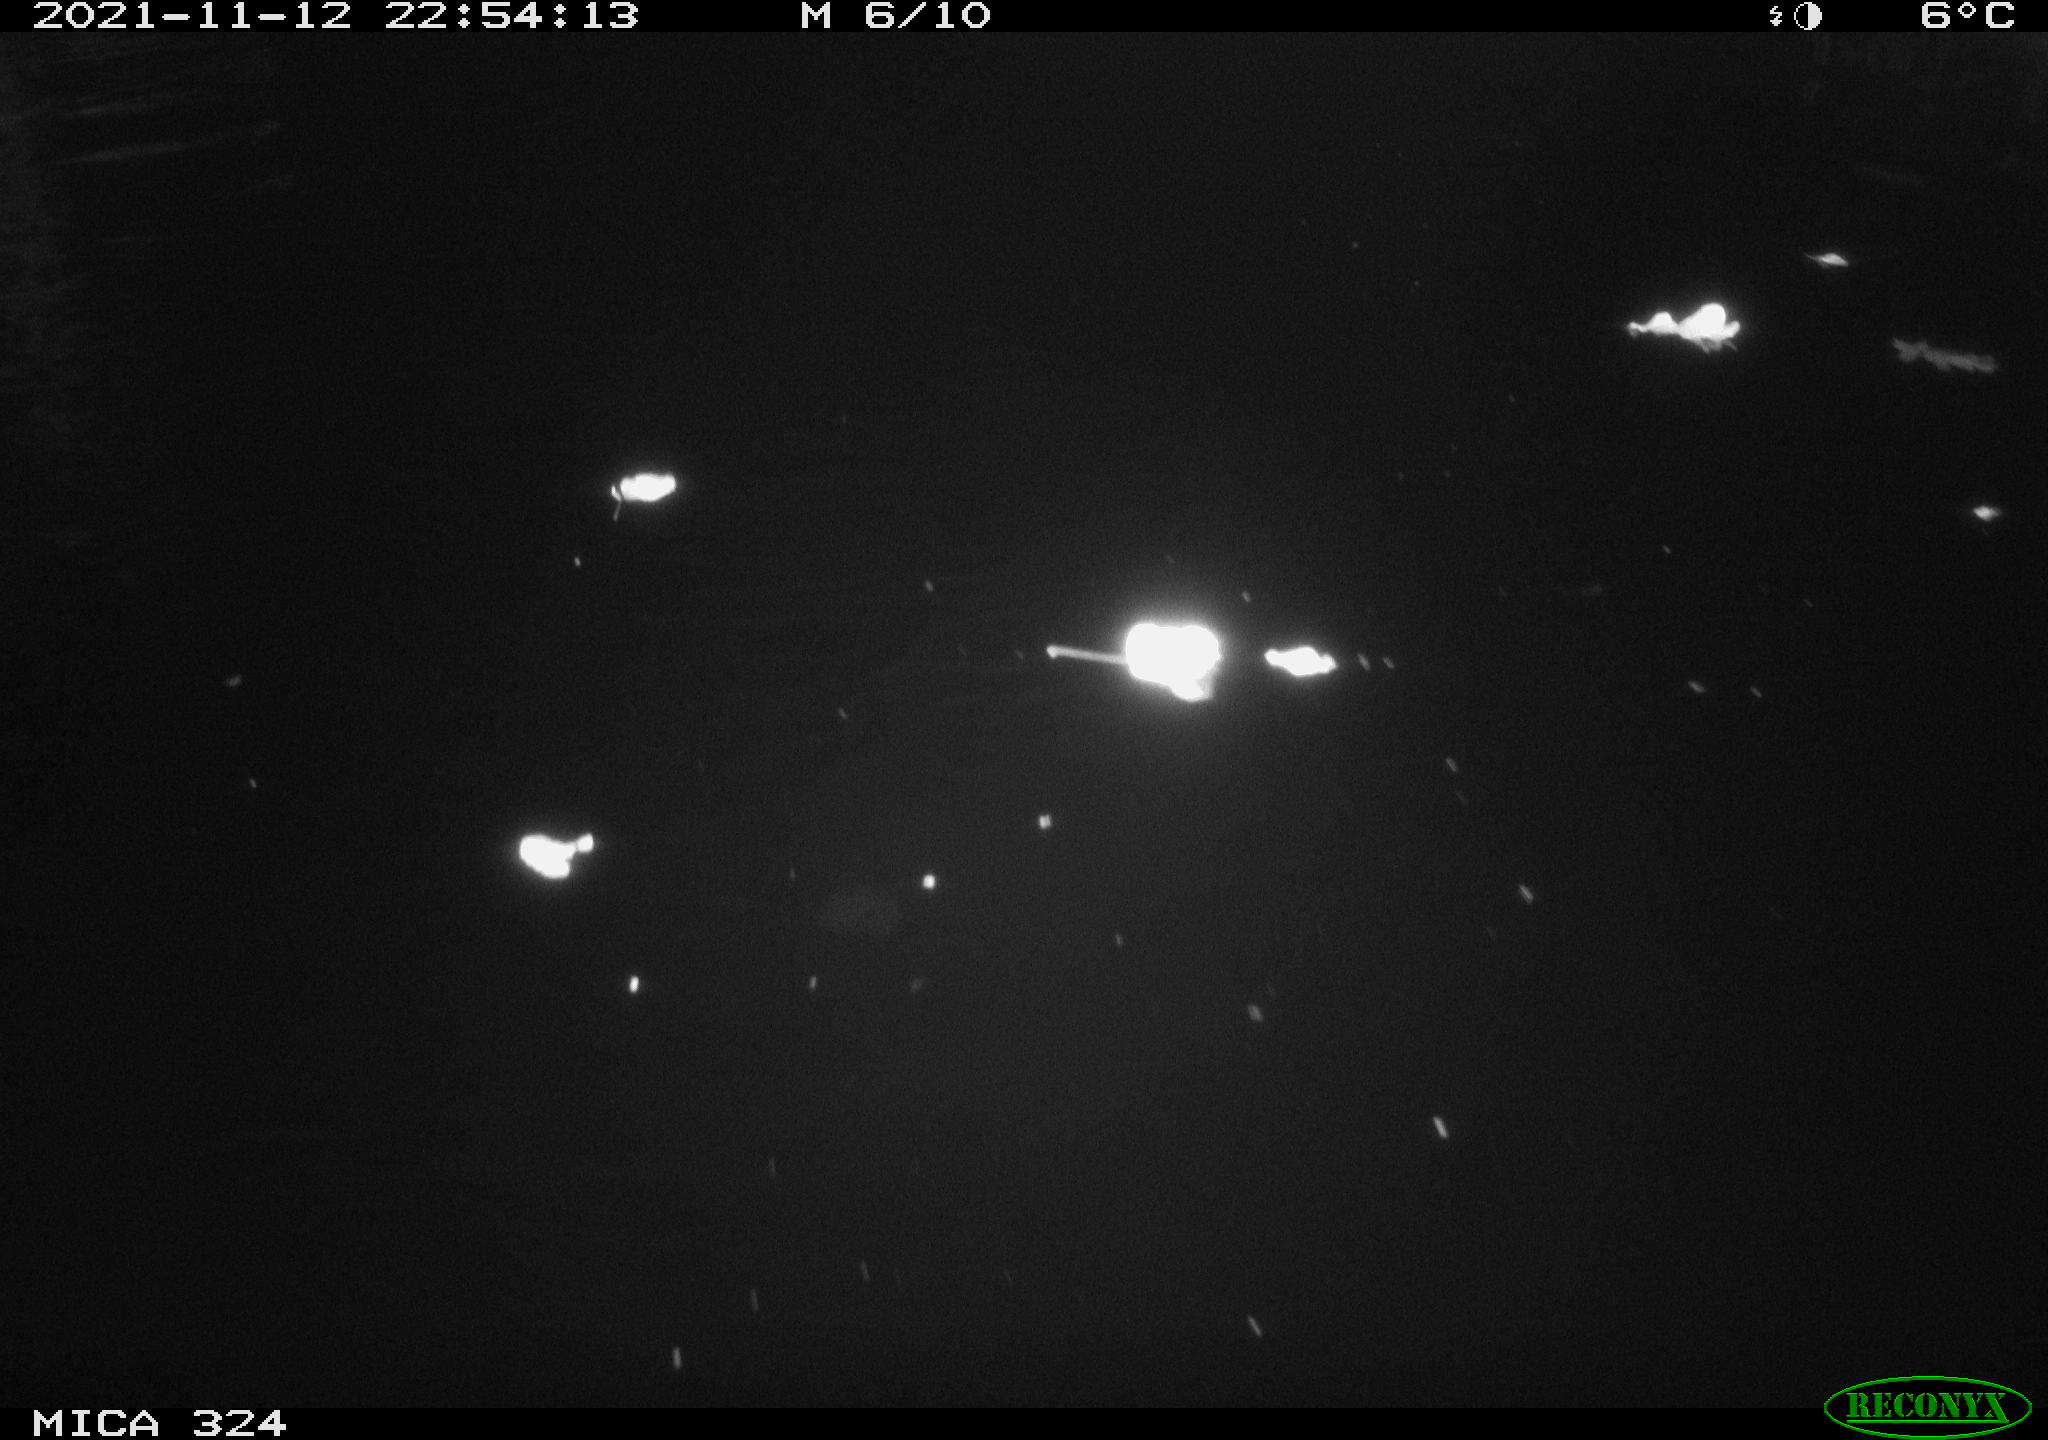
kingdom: Animalia
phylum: Chordata
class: Mammalia
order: Rodentia
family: Cricetidae
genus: Ondatra
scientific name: Ondatra zibethicus
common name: Muskrat
